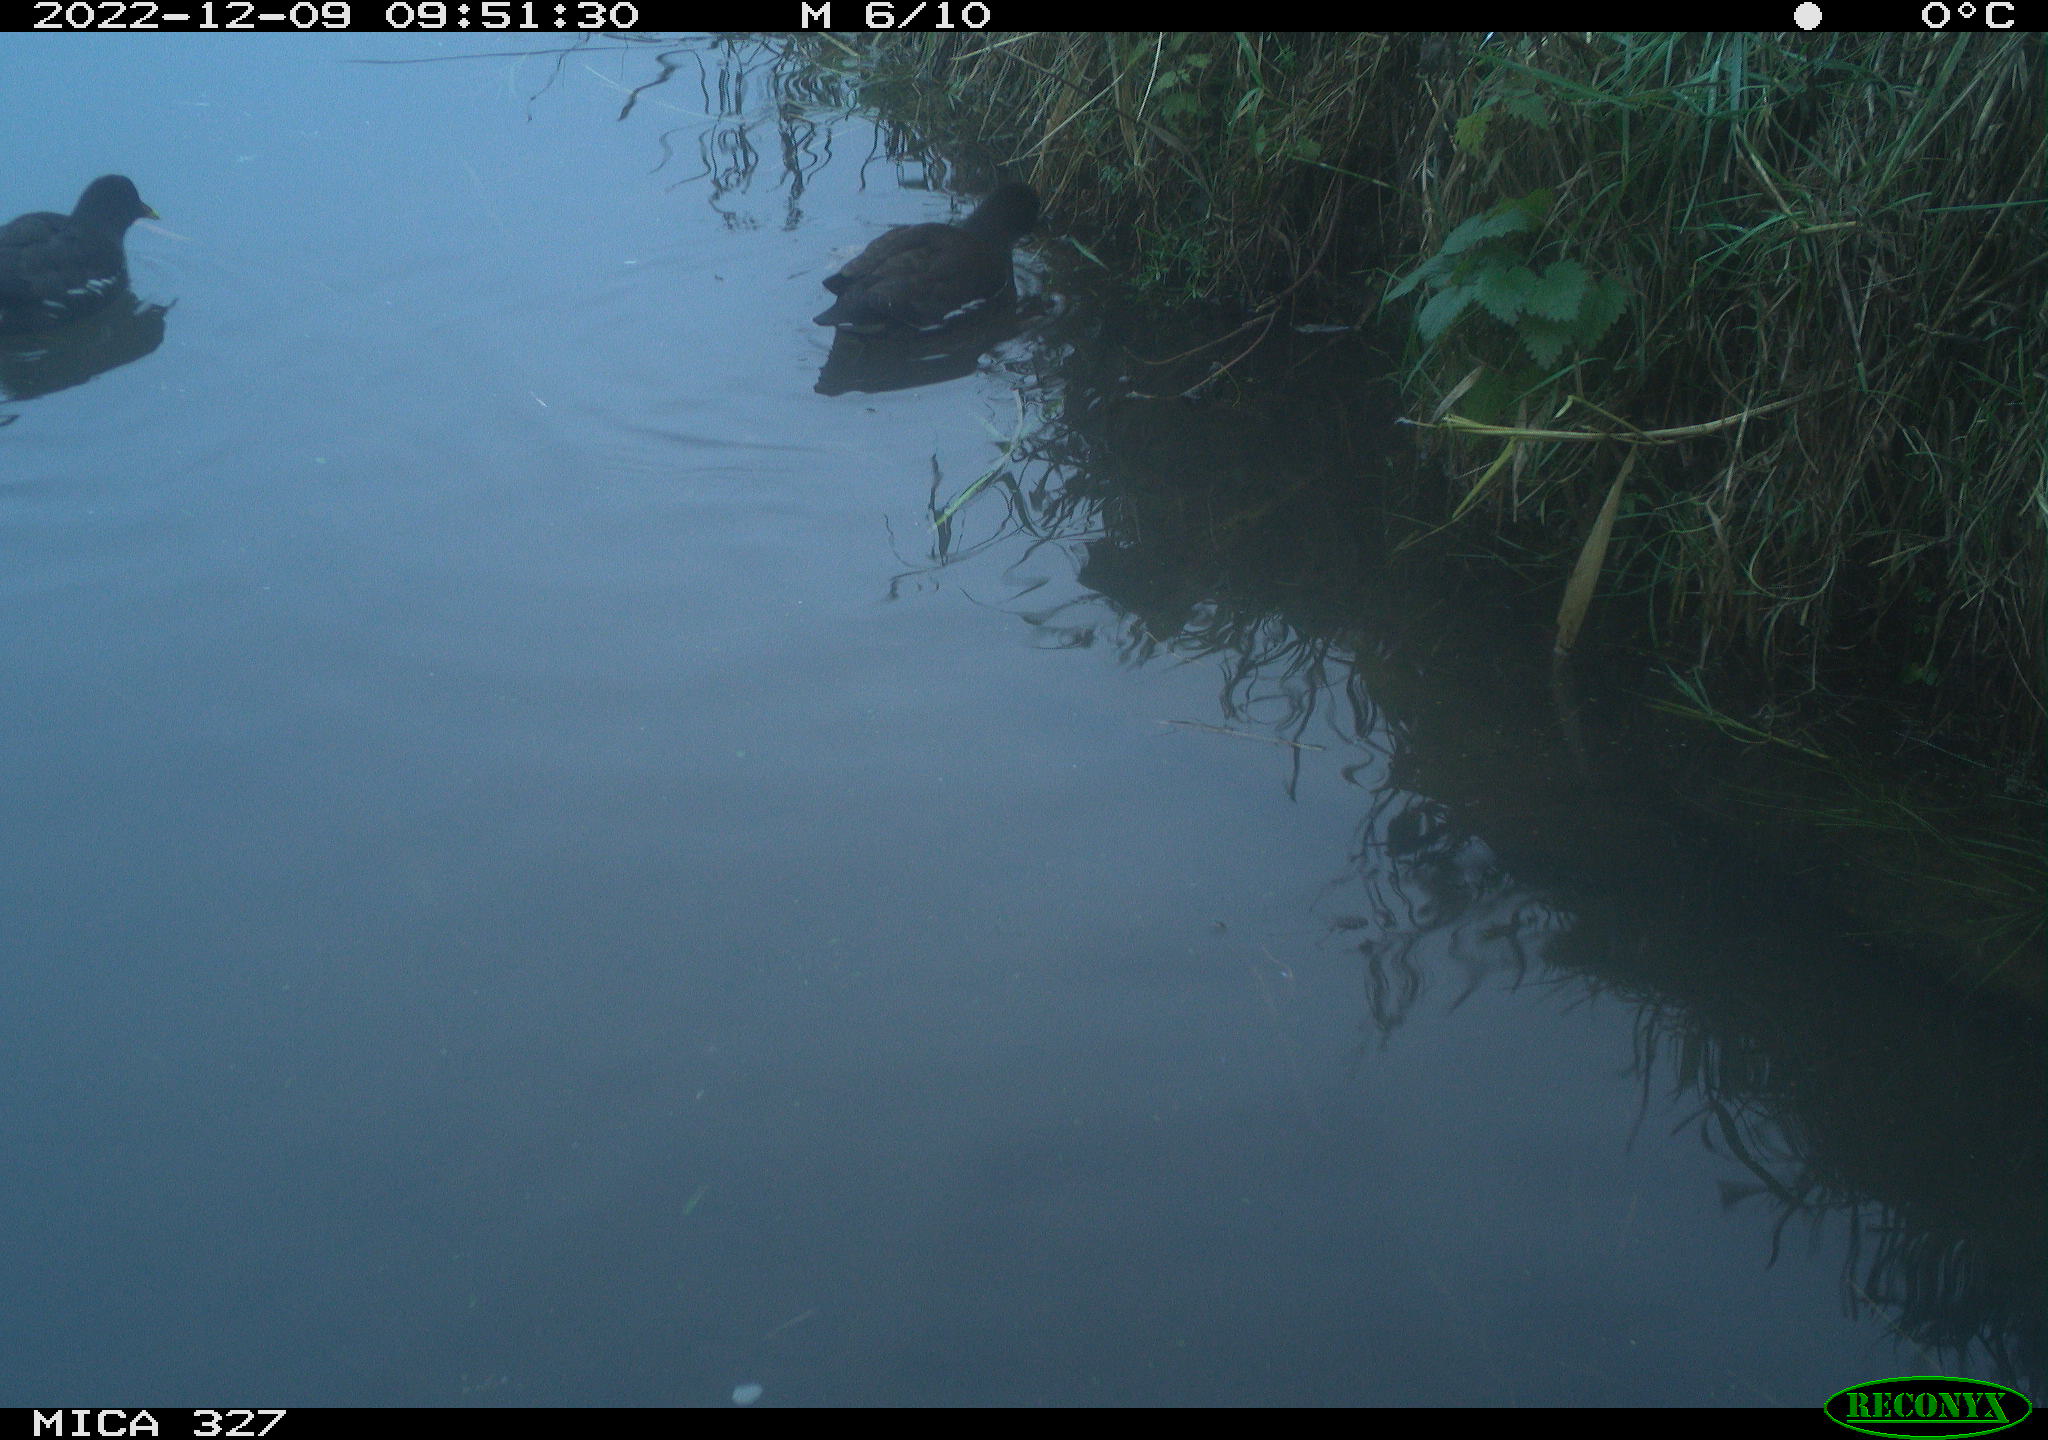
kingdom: Animalia
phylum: Chordata
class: Aves
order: Gruiformes
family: Rallidae
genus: Gallinula
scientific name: Gallinula chloropus
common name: Common moorhen
